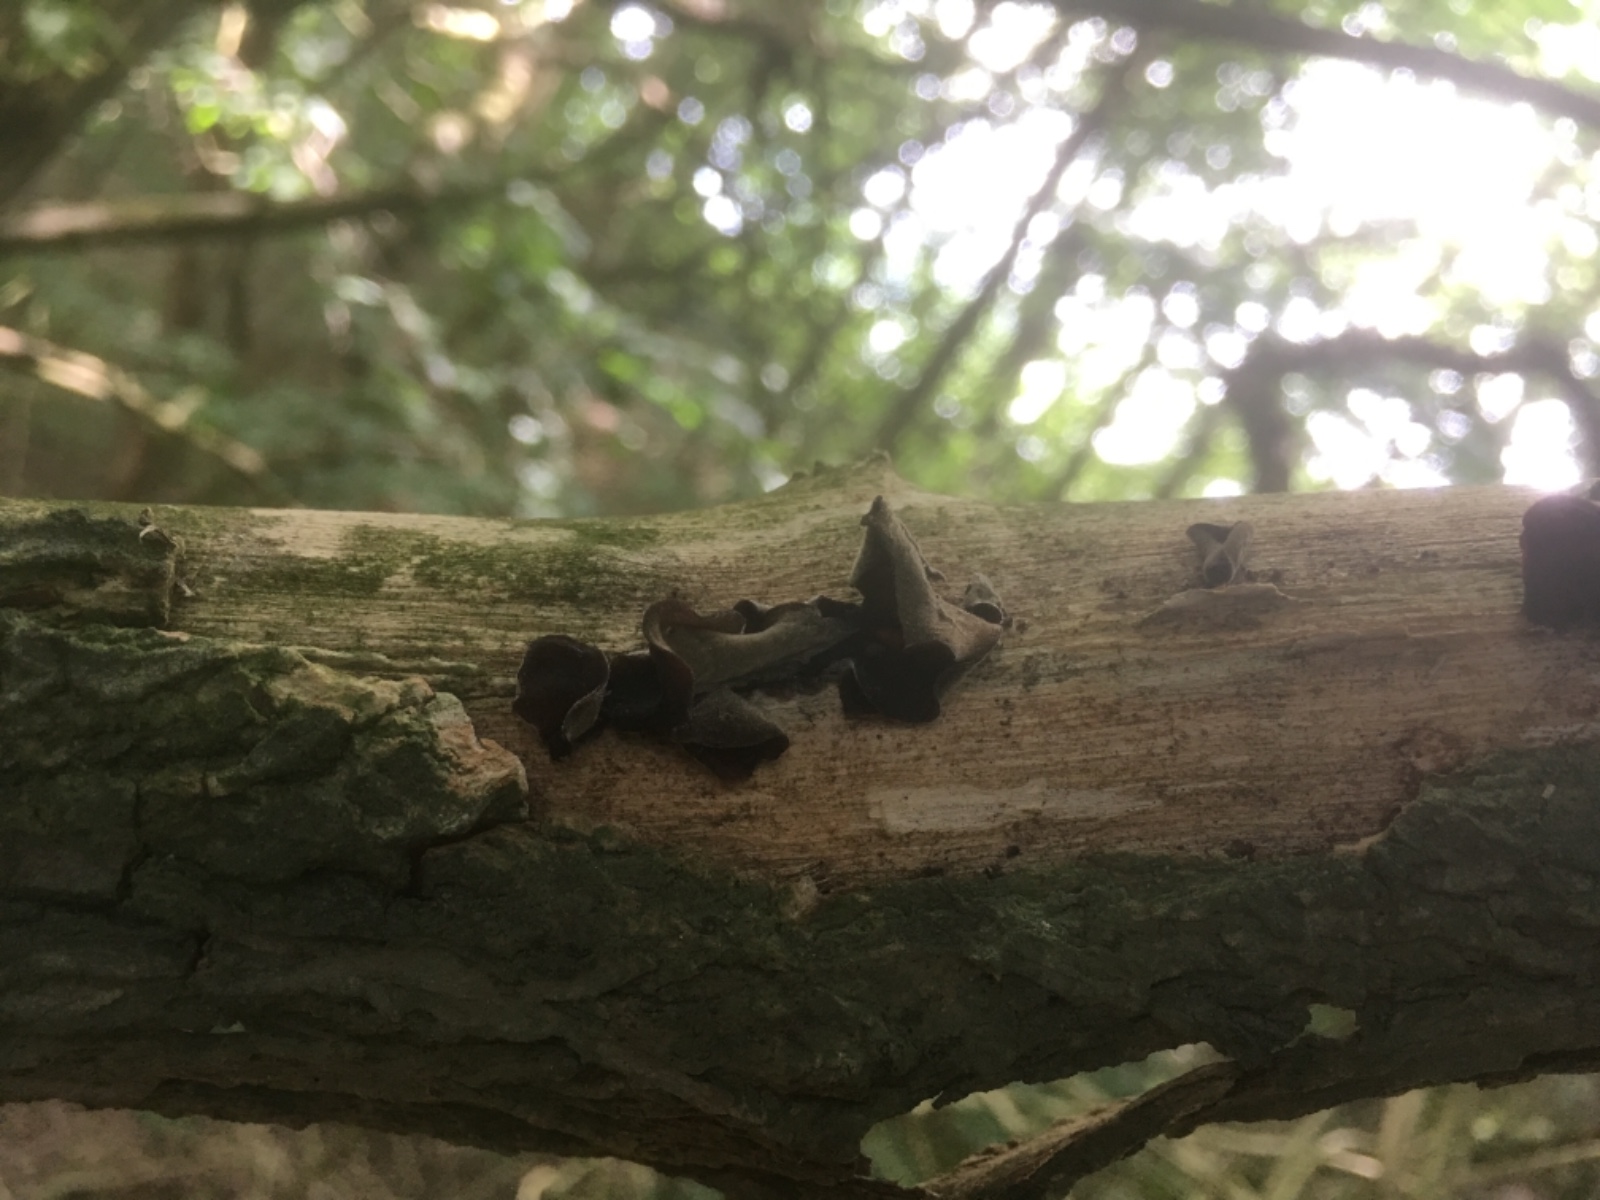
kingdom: Fungi
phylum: Basidiomycota
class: Agaricomycetes
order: Auriculariales
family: Auriculariaceae
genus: Auricularia
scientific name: Auricularia auricula-judae
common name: almindelig judasøre
